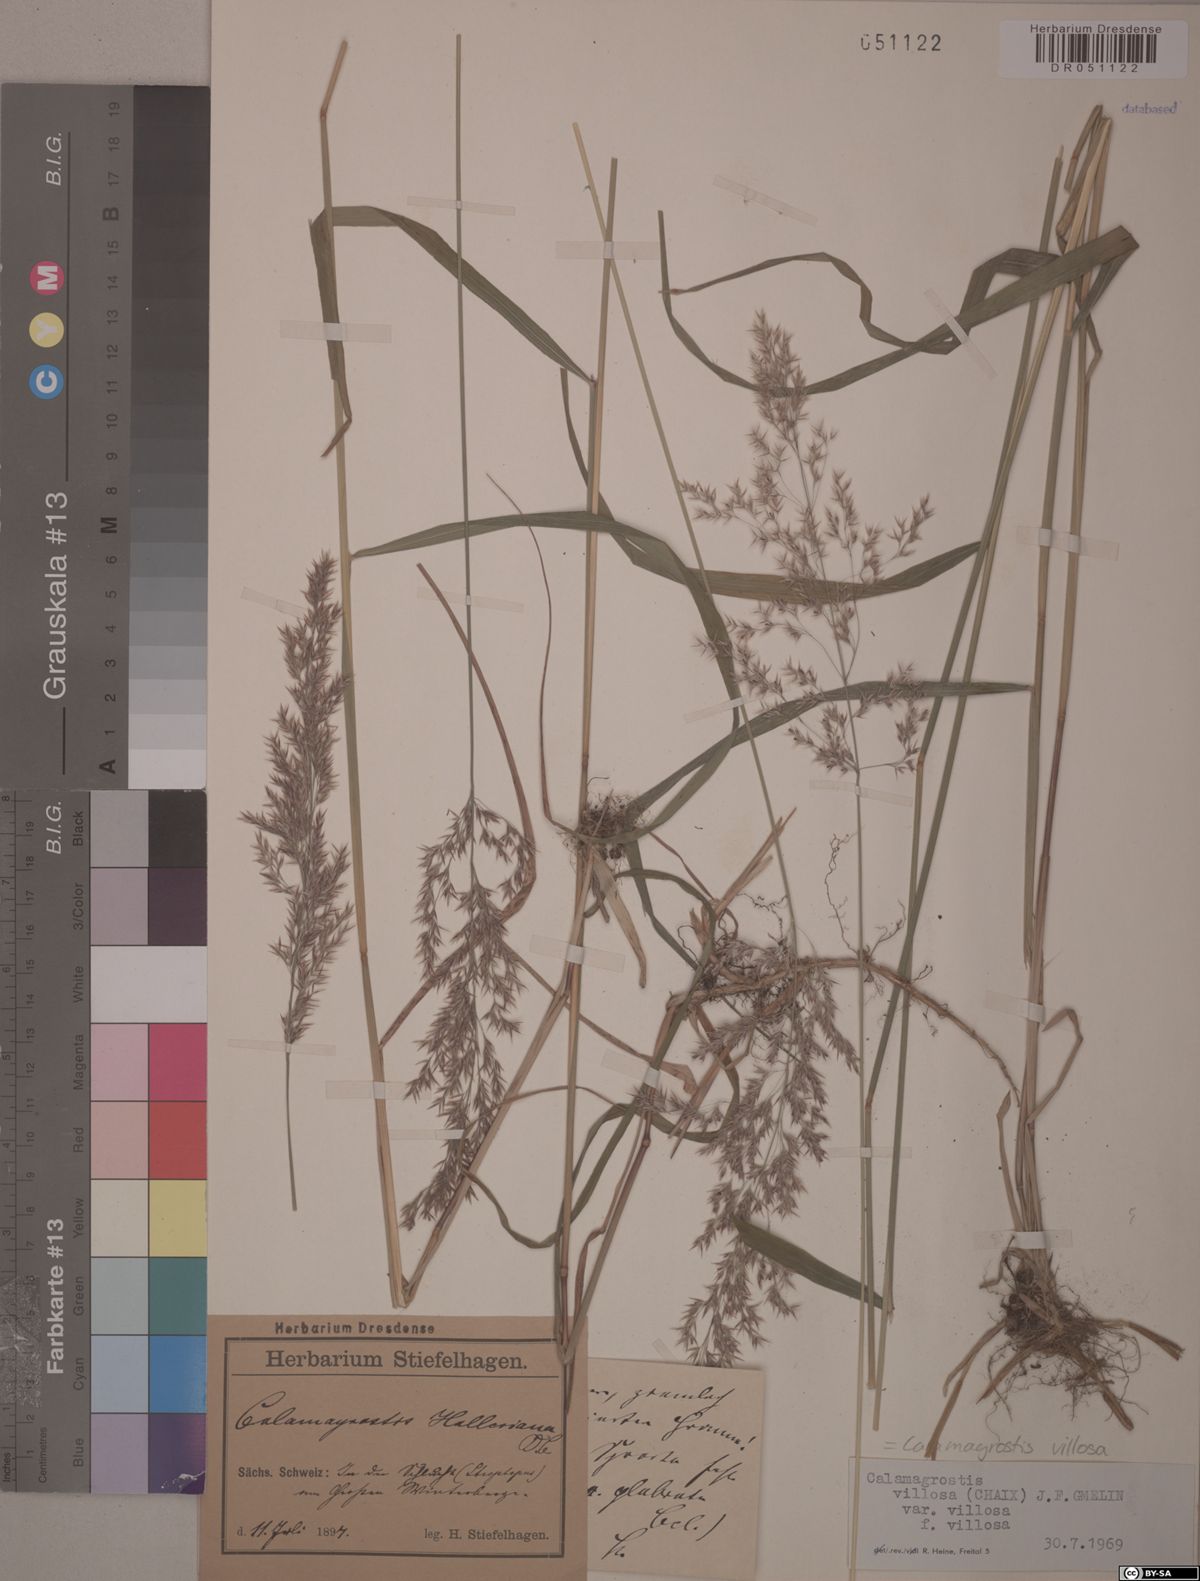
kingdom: Plantae
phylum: Tracheophyta
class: Liliopsida
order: Poales
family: Poaceae
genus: Calamagrostis
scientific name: Calamagrostis villosa
